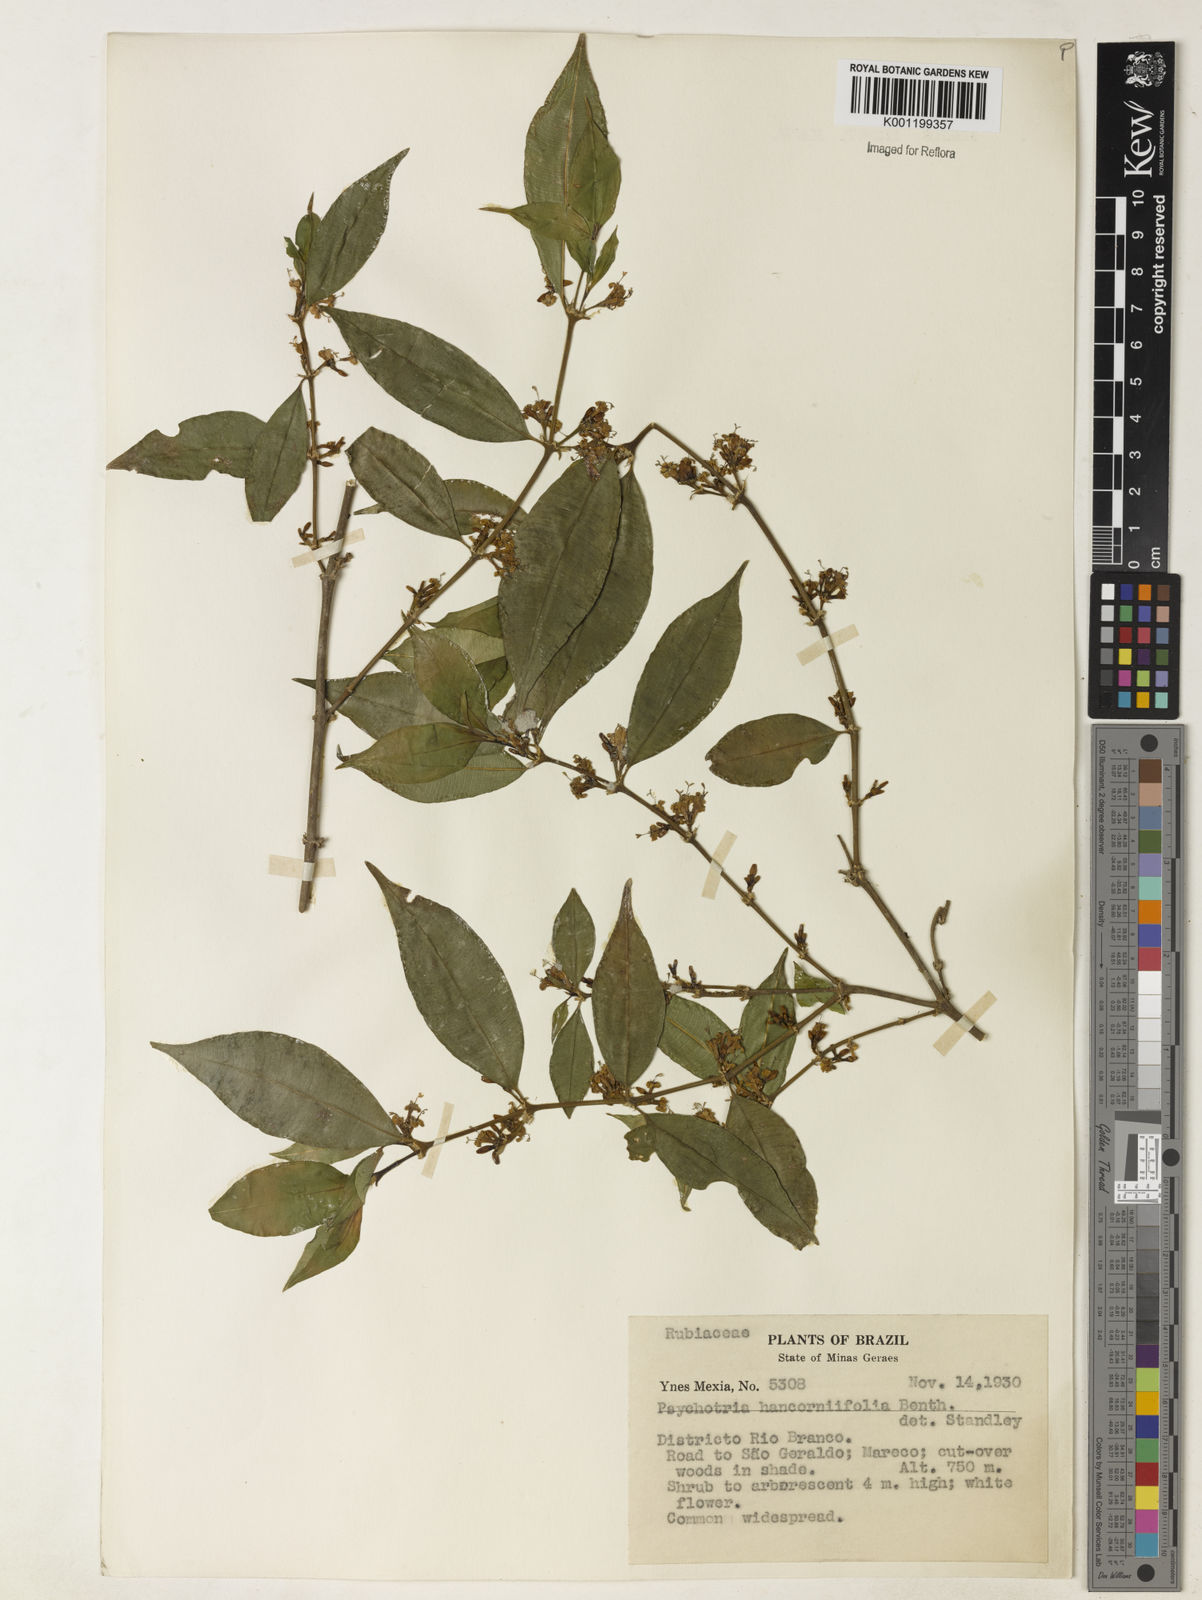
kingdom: Plantae
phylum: Tracheophyta
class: Magnoliopsida
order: Gentianales
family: Rubiaceae
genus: Rudgea
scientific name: Rudgea sessilis
